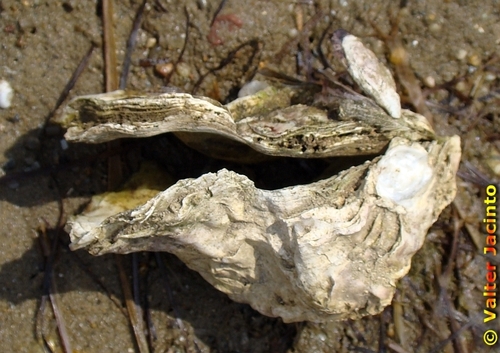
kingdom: Animalia
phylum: Mollusca
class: Bivalvia
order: Ostreida
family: Ostreidae
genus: Magallana
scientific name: Magallana gigas
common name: Pacific oyster
